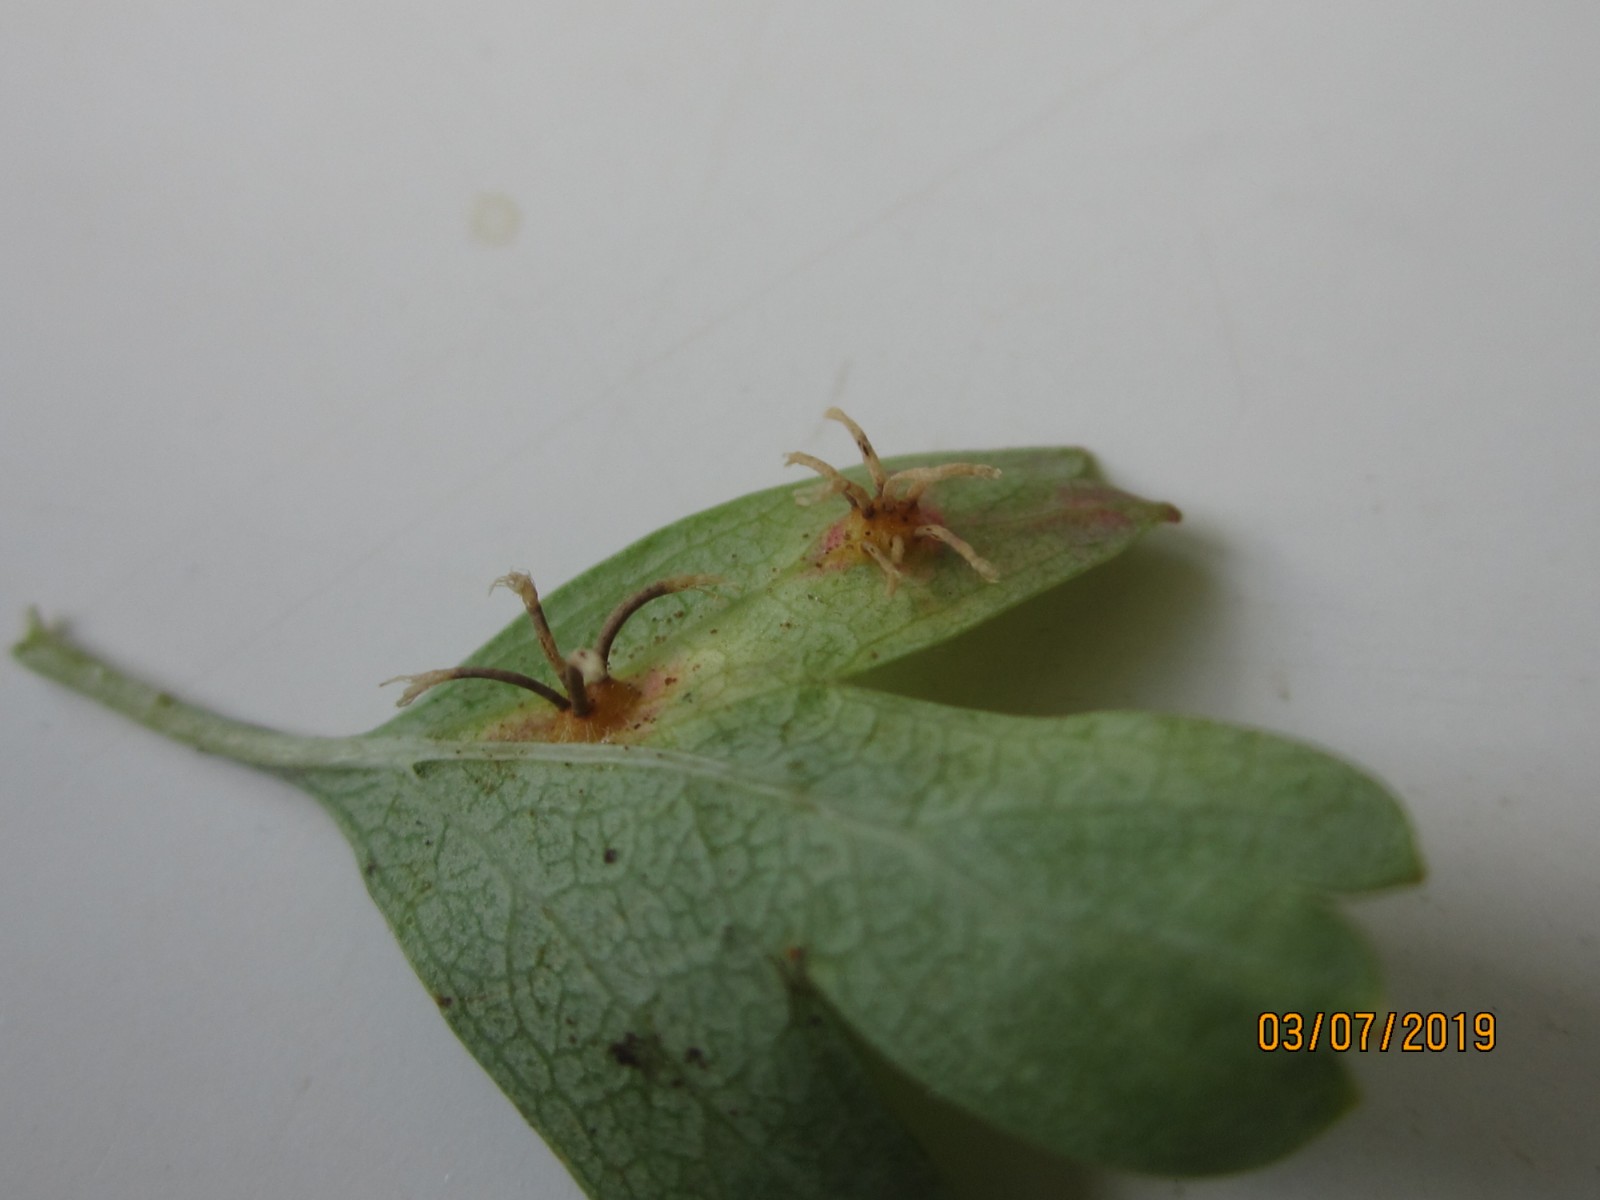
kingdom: Fungi
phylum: Basidiomycota
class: Pucciniomycetes
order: Pucciniales
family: Gymnosporangiaceae
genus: Gymnosporangium
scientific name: Gymnosporangium clavariiforme
